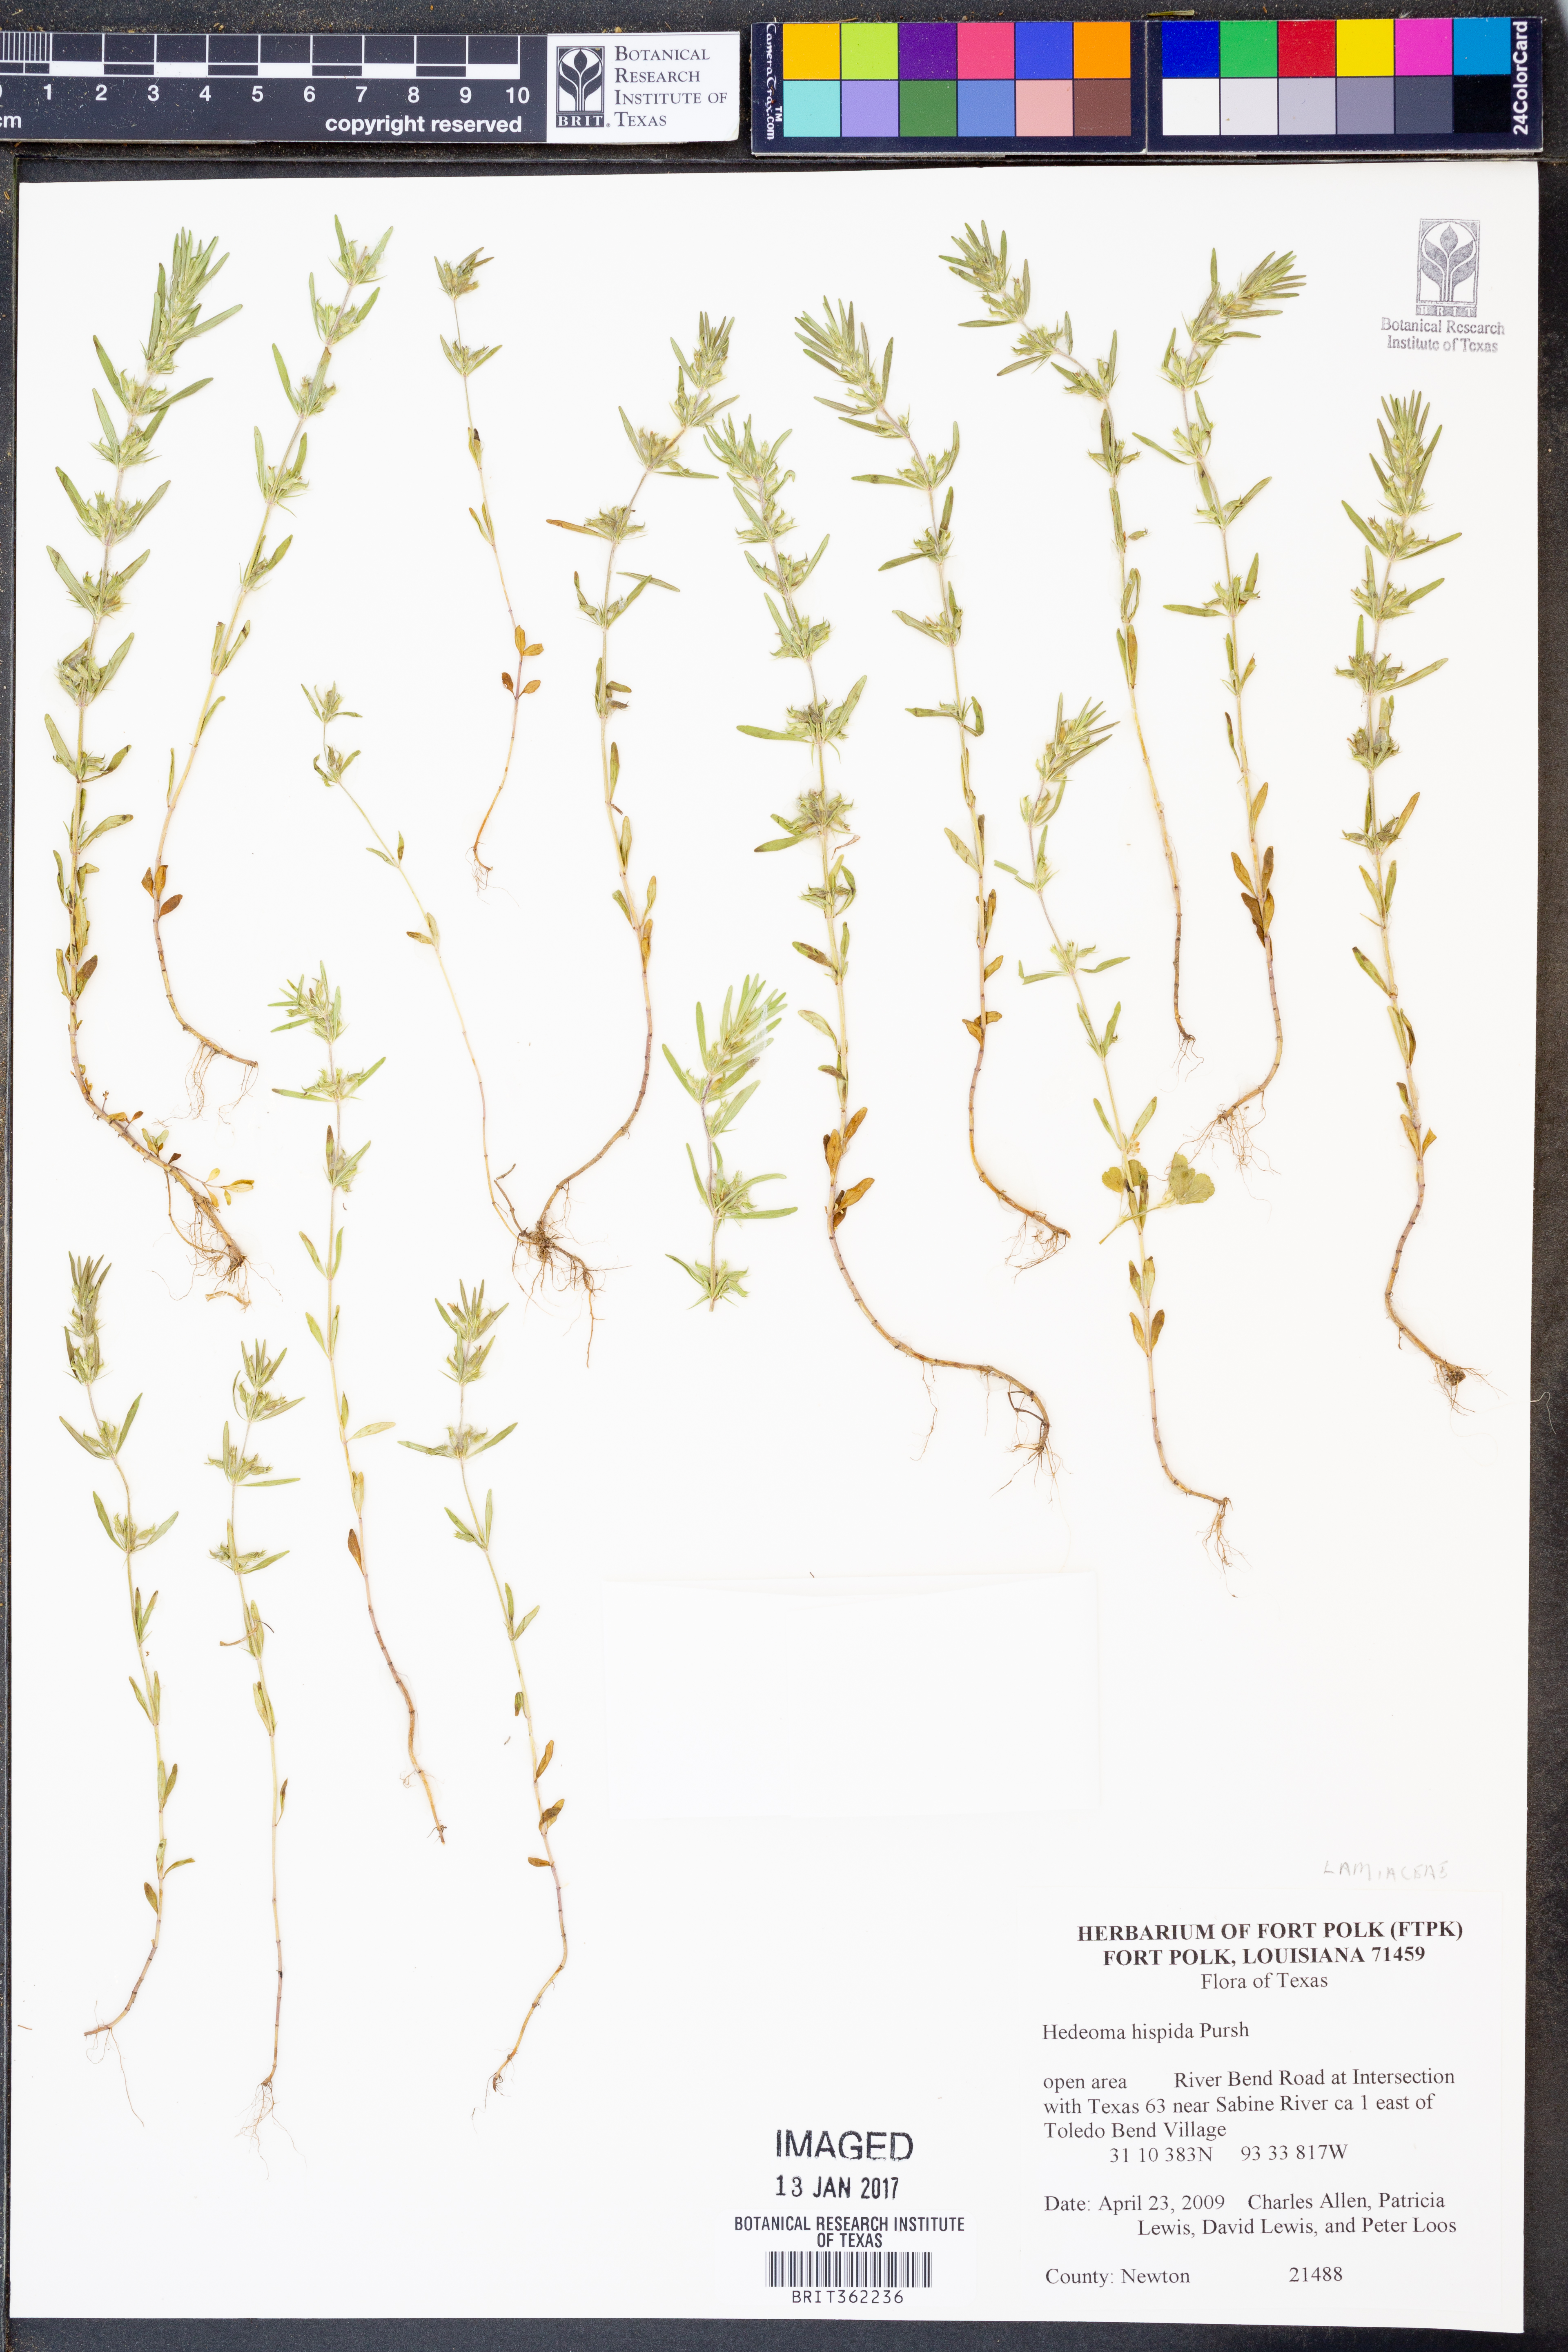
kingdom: Plantae
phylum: Tracheophyta
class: Magnoliopsida
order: Lamiales
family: Lamiaceae
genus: Hedeoma
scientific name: Hedeoma hispida
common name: Mock pennyroyal
